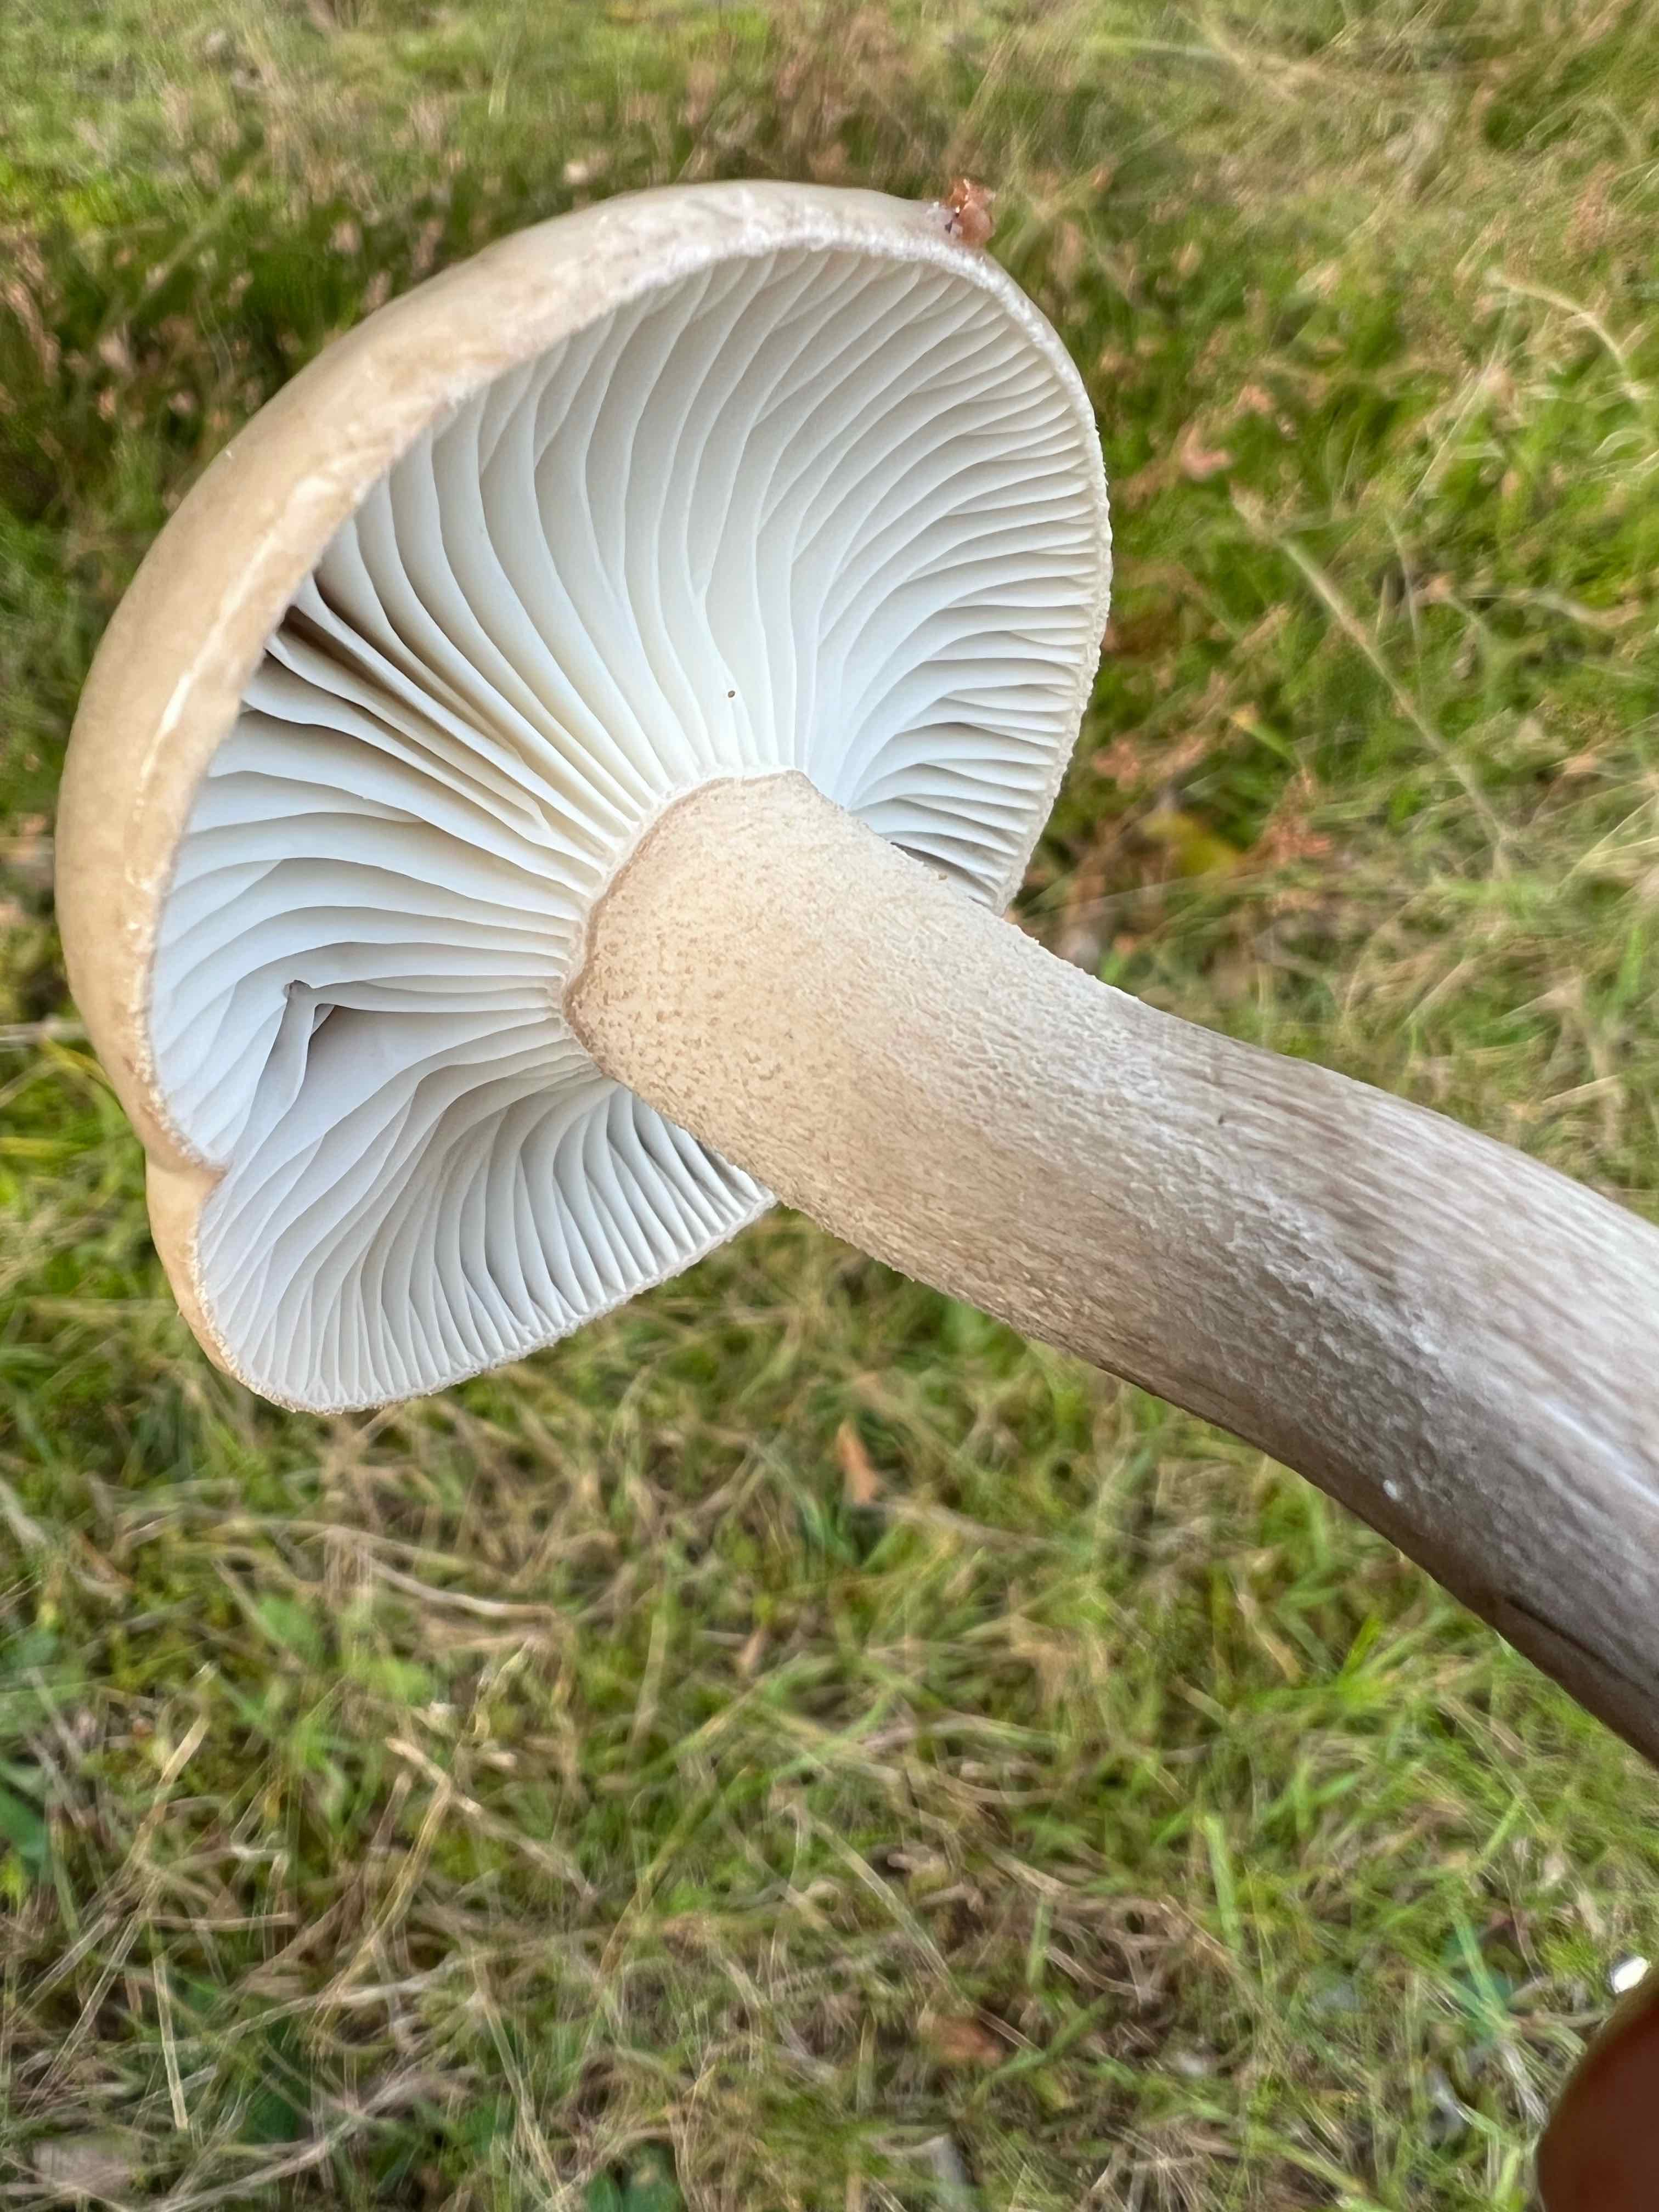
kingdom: Fungi
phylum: Basidiomycota
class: Agaricomycetes
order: Agaricales
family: Hygrophoraceae
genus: Hygrophorus
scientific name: Hygrophorus agathosmus
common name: vellugtende sneglehat
